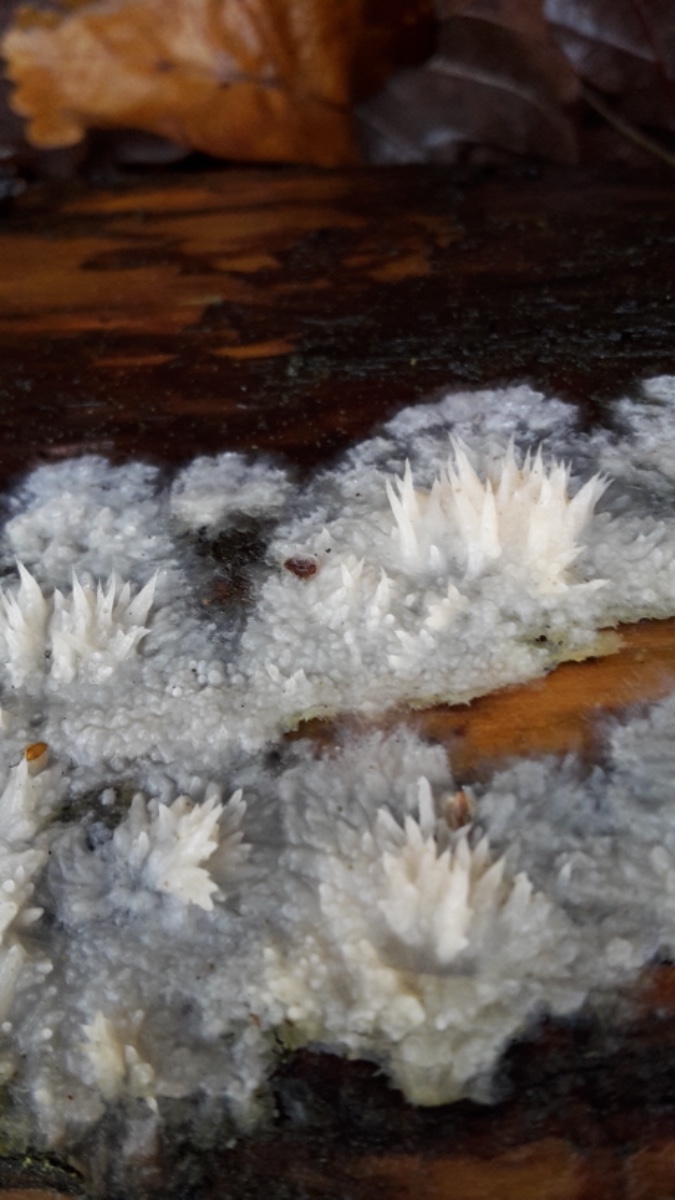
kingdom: Fungi
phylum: Basidiomycota
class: Agaricomycetes
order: Polyporales
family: Phanerochaetaceae
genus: Phlebiopsis
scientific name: Phlebiopsis gigantea
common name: kæmpebarksvamp
